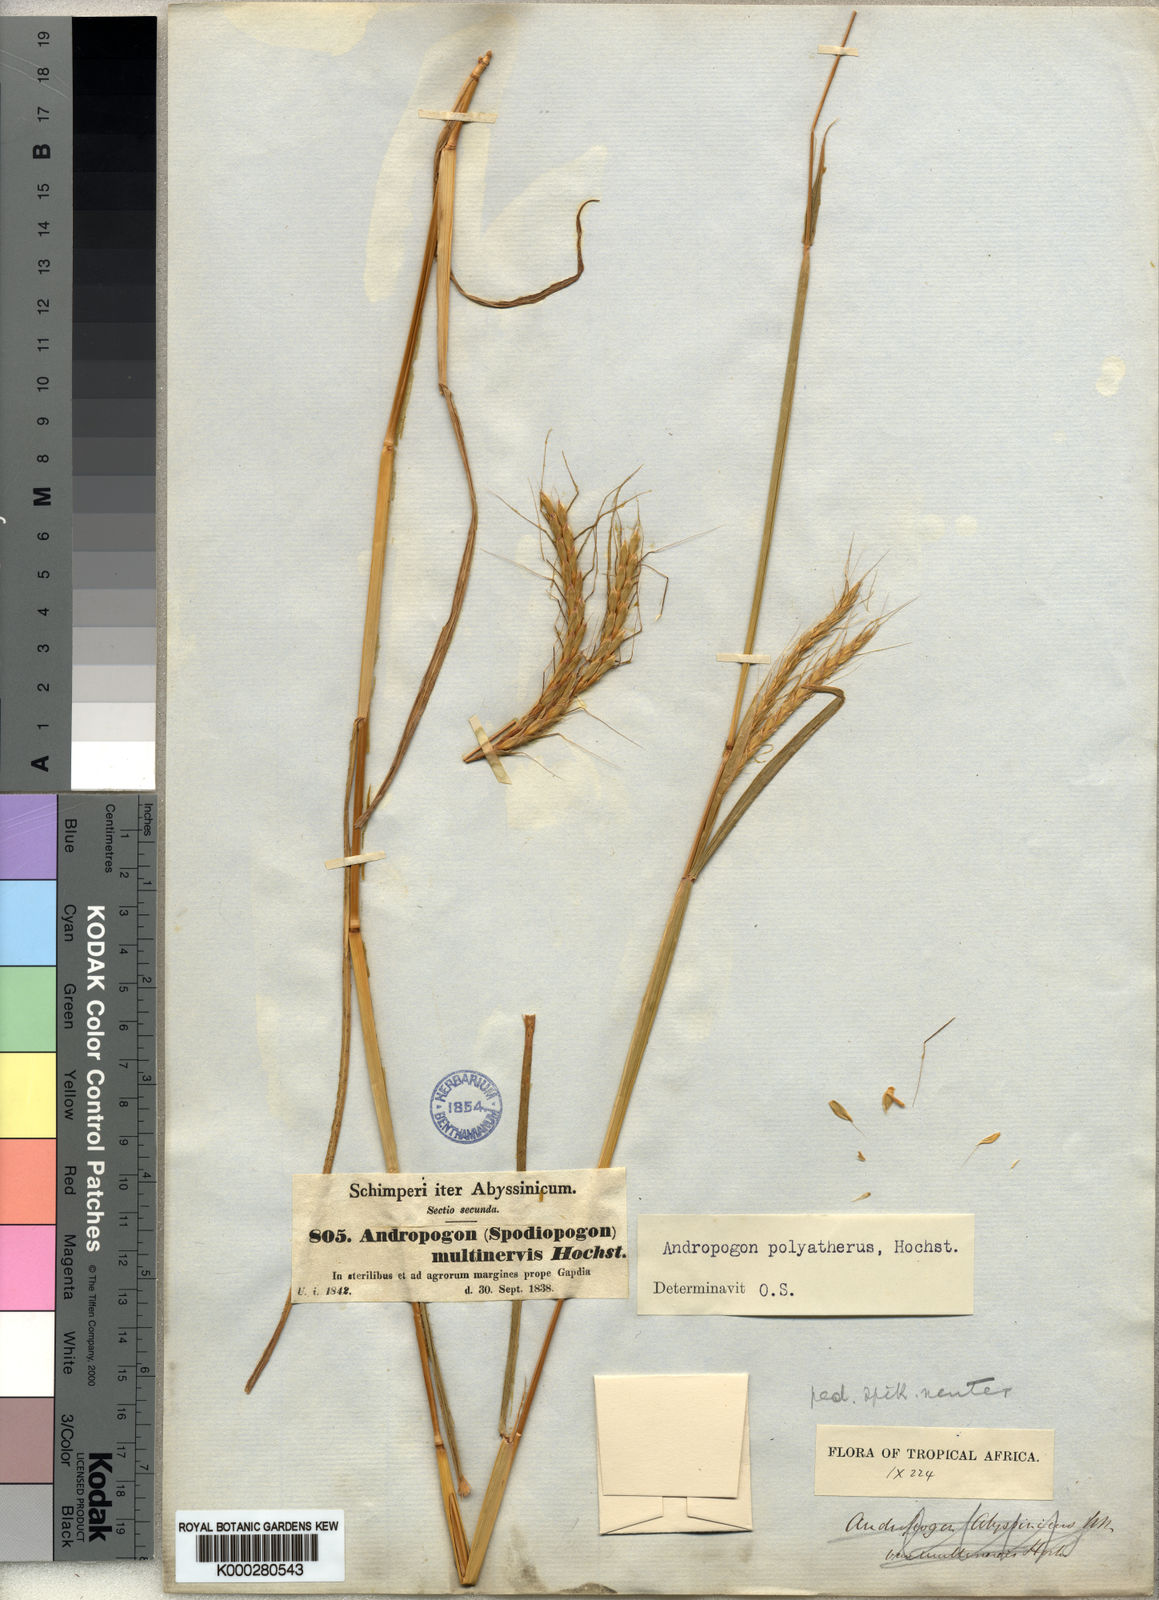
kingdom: Plantae
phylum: Tracheophyta
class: Liliopsida
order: Poales
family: Poaceae
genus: Andropogon
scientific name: Andropogon abyssinicus
